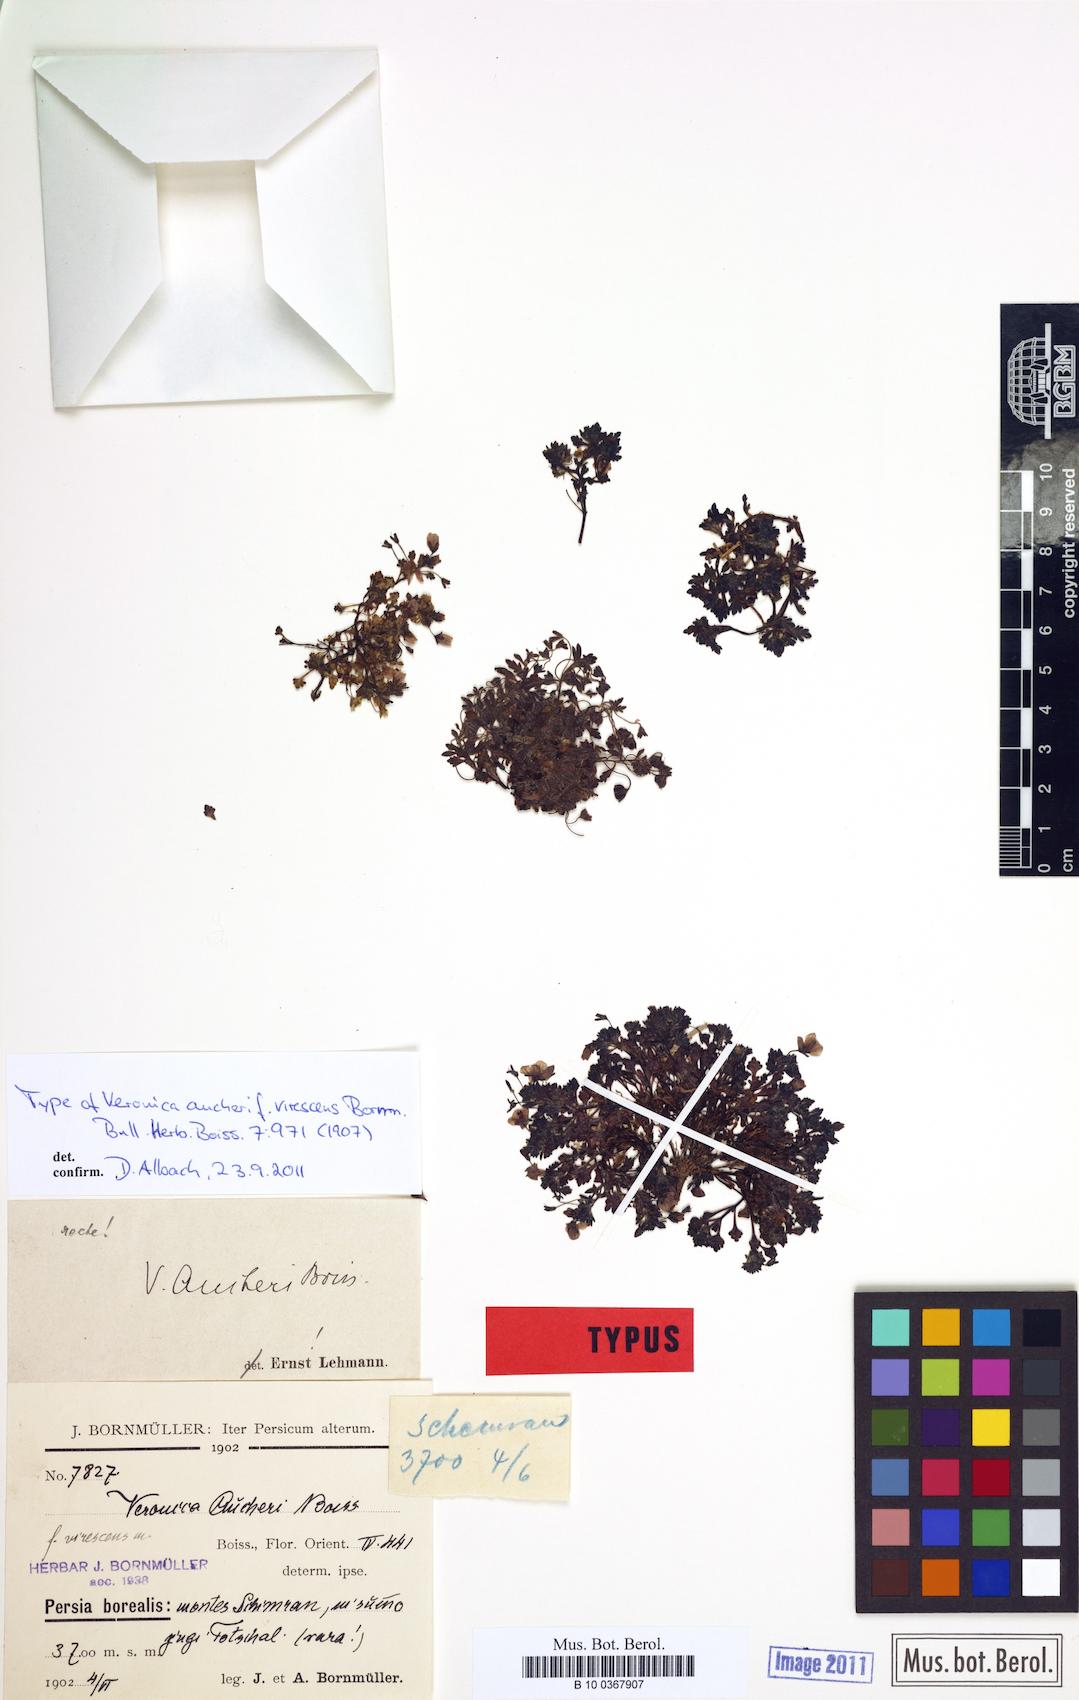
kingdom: Plantae
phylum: Tracheophyta
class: Magnoliopsida
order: Lamiales
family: Plantaginaceae
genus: Veronica
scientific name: Veronica aucheri
